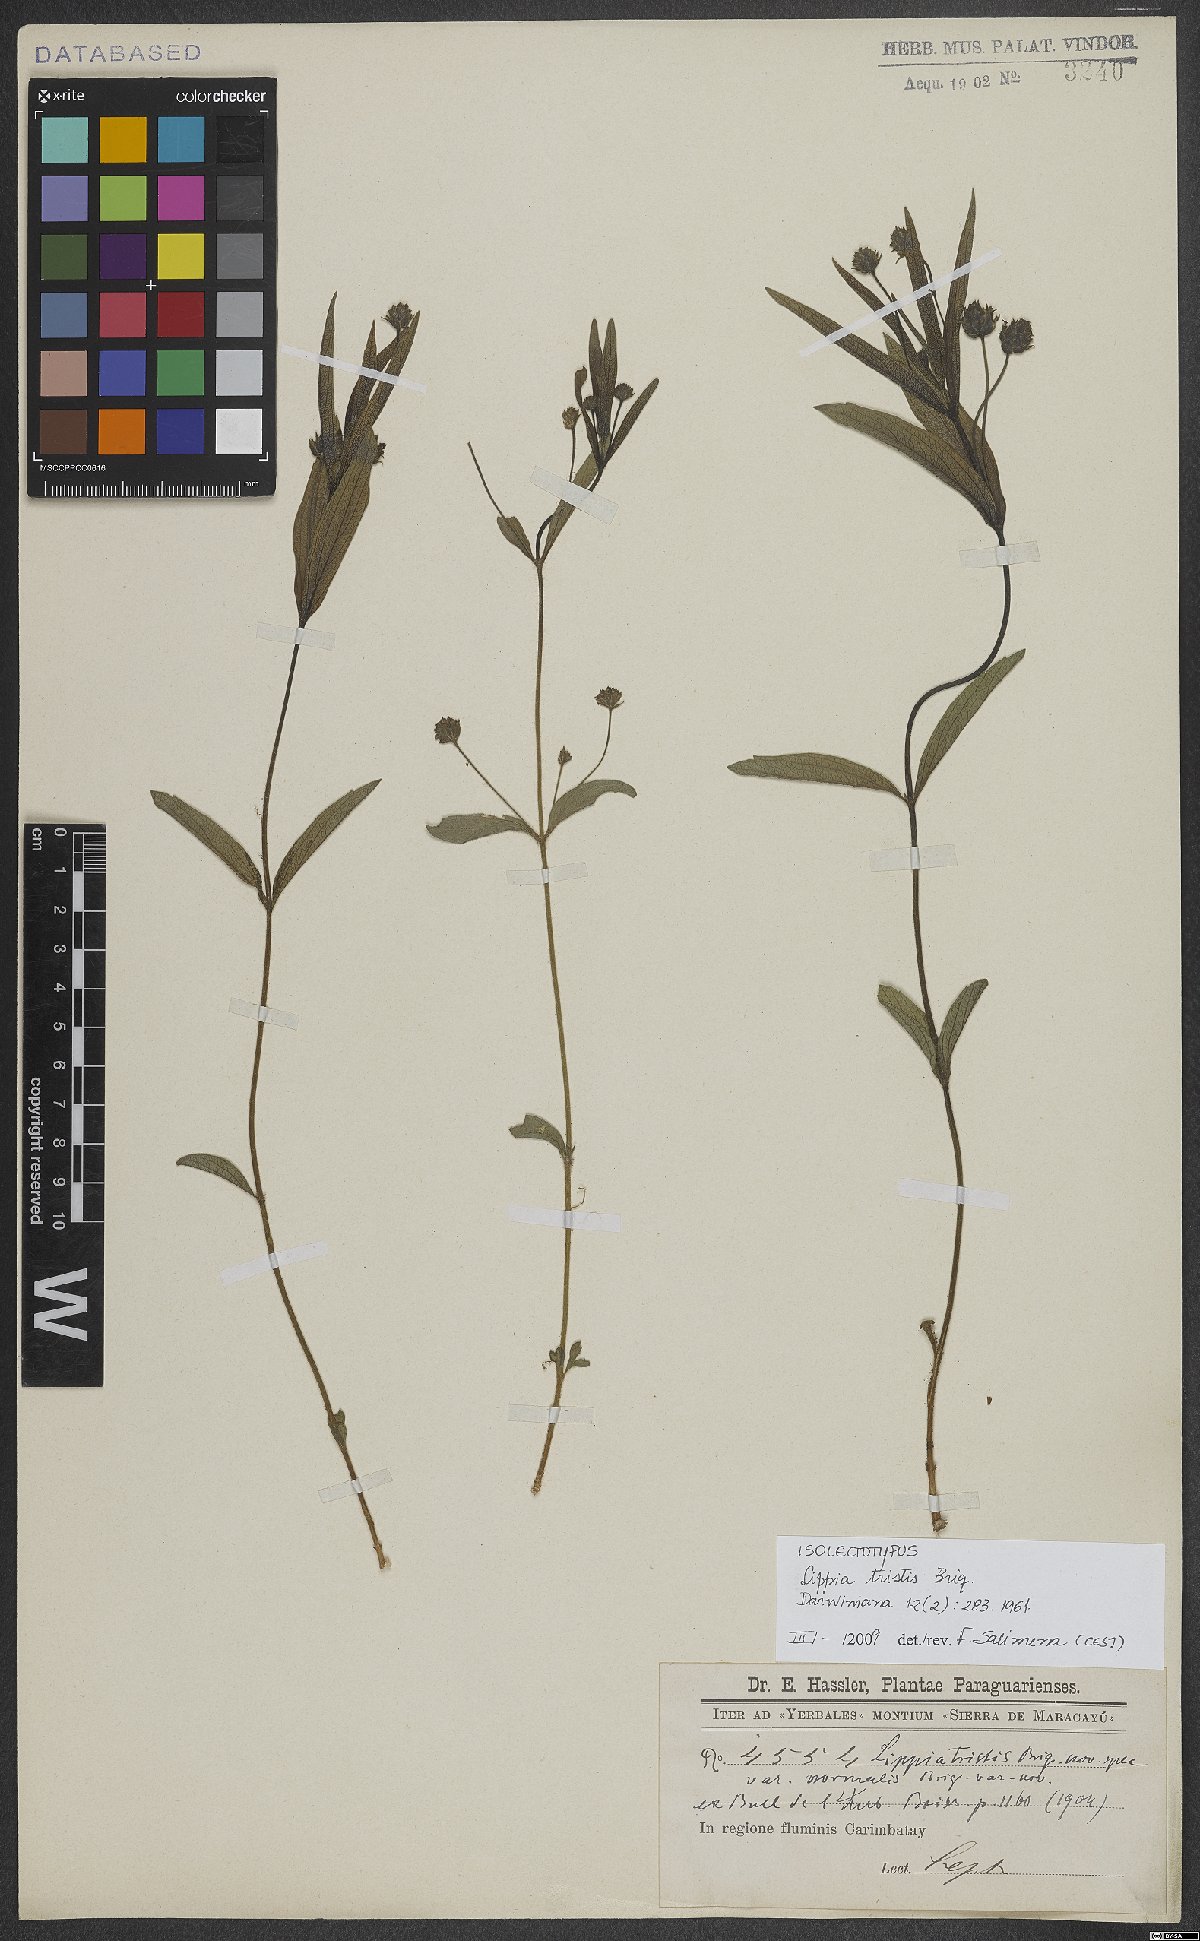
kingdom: Plantae
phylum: Tracheophyta
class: Magnoliopsida
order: Lamiales
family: Verbenaceae
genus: Lippia
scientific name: Lippia tristis
